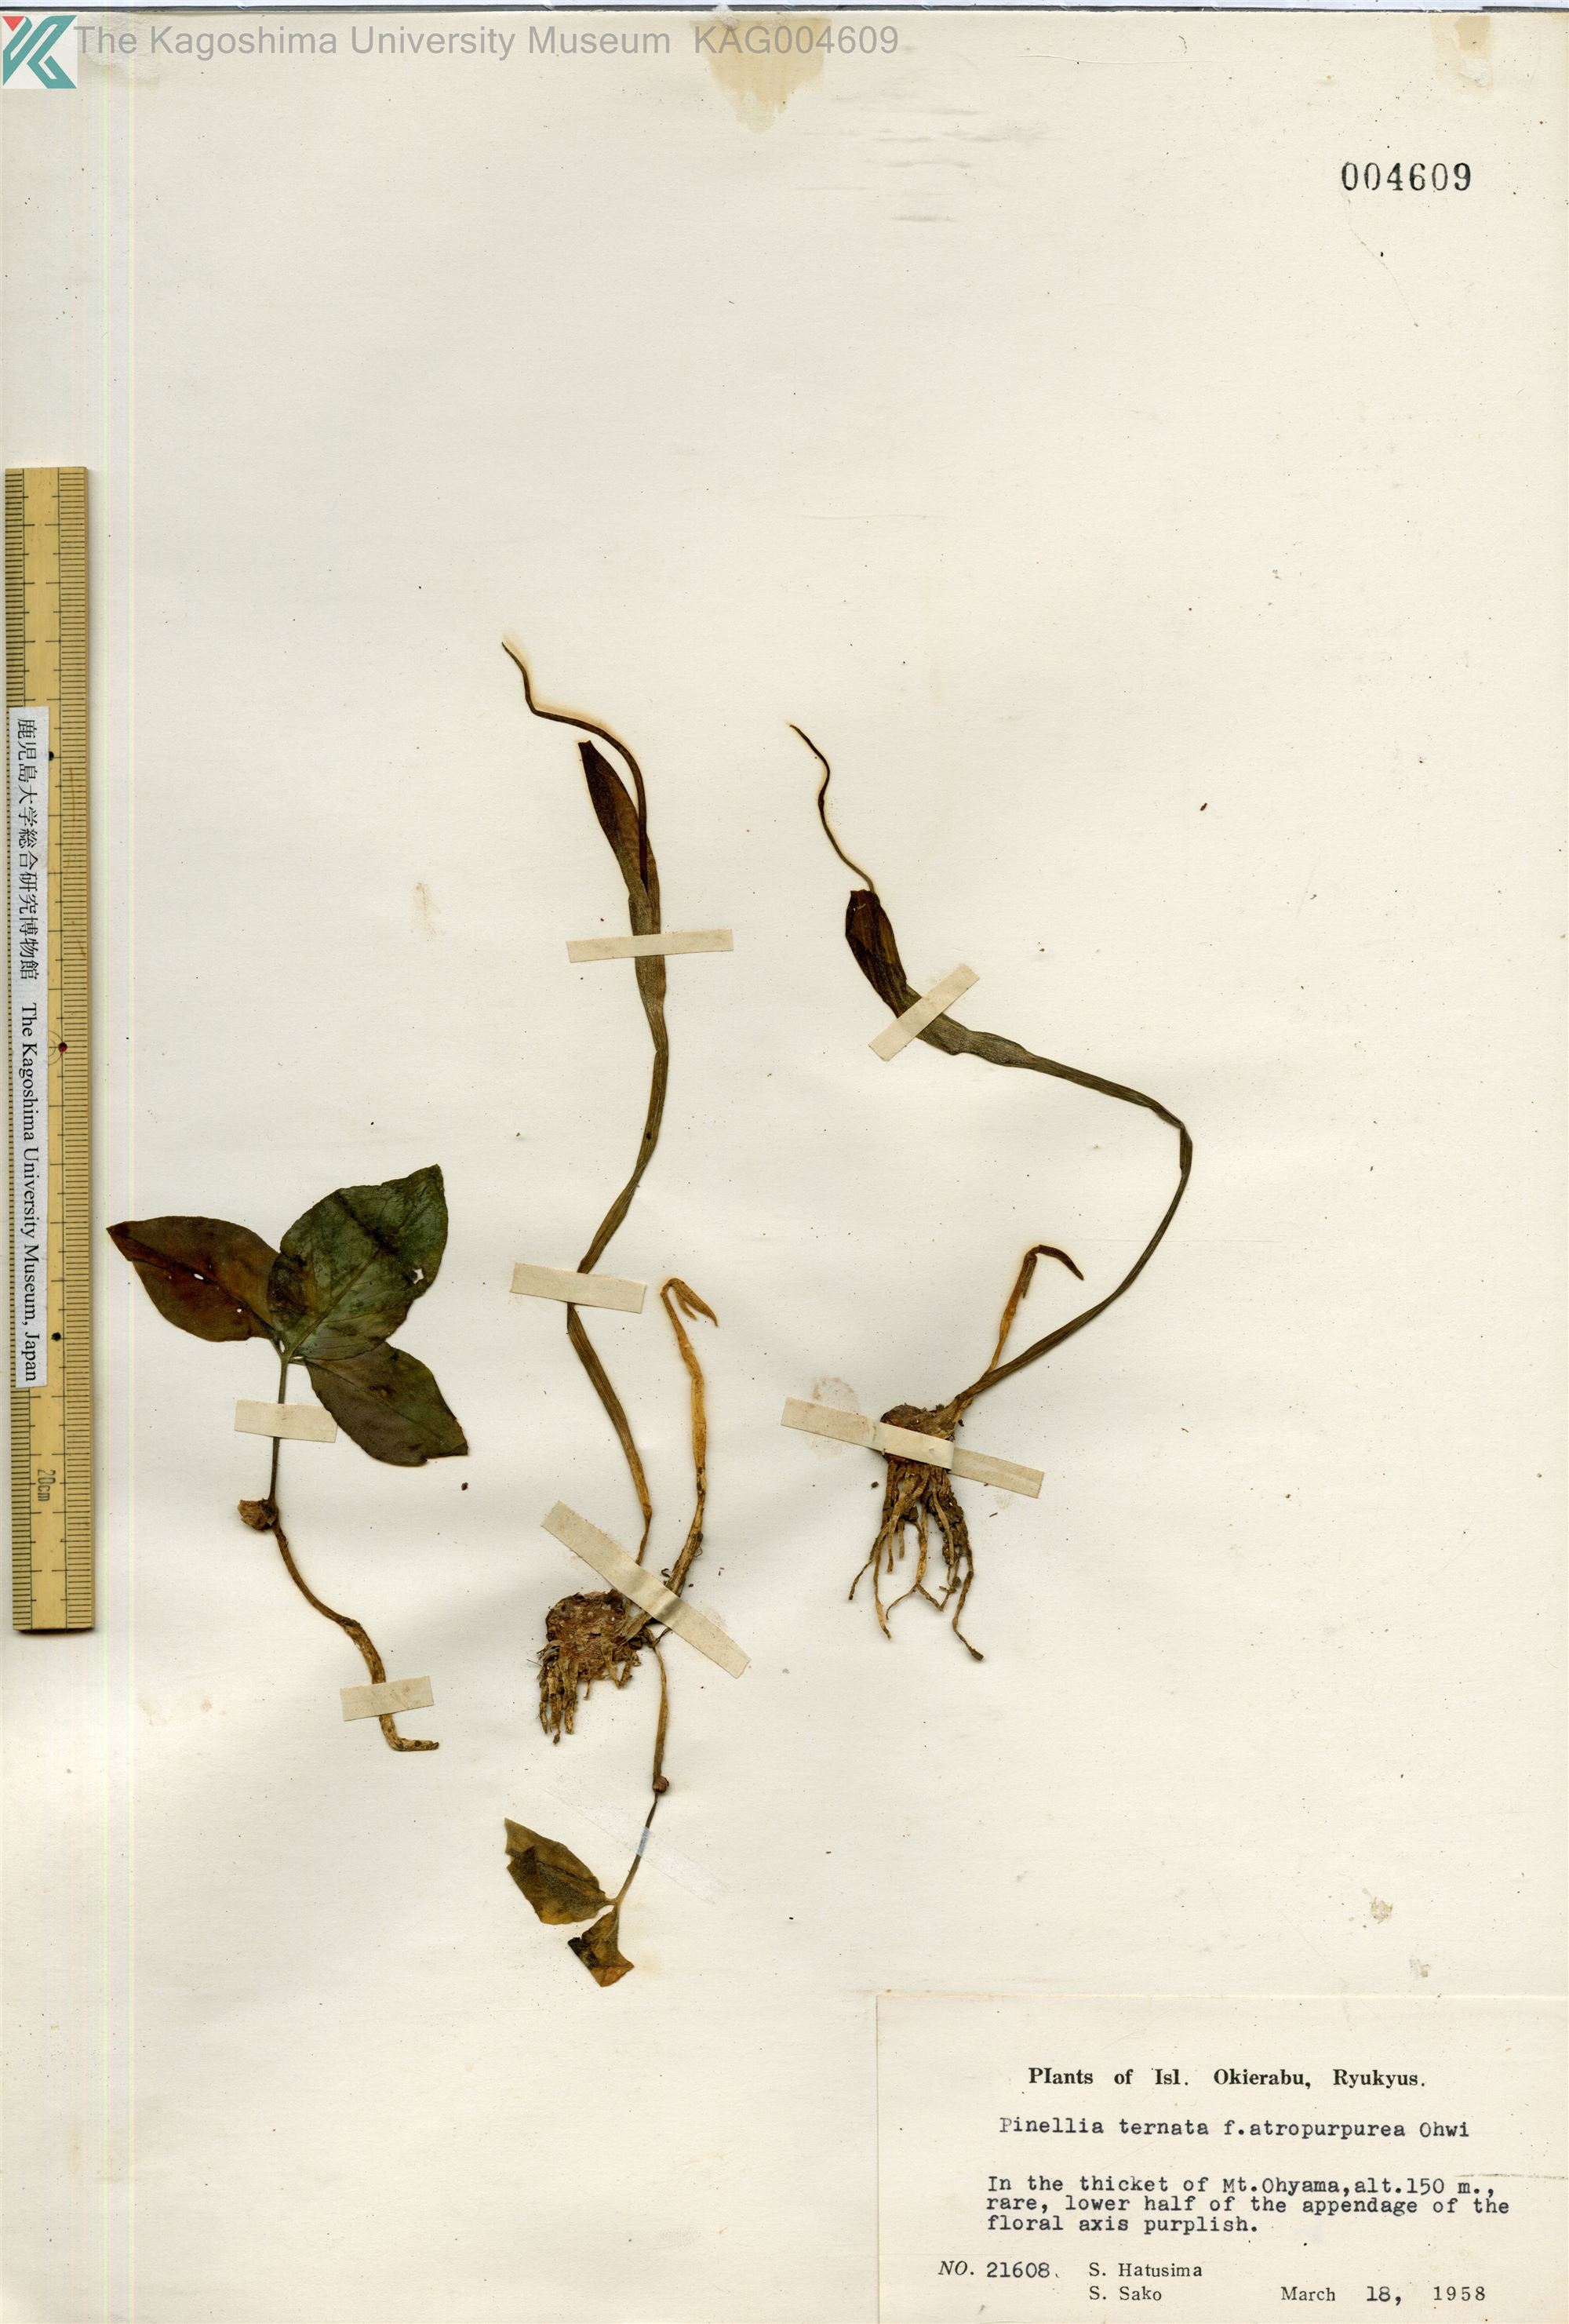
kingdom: Plantae
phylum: Tracheophyta
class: Liliopsida
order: Alismatales
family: Araceae
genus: Pinellia
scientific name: Pinellia ternata
